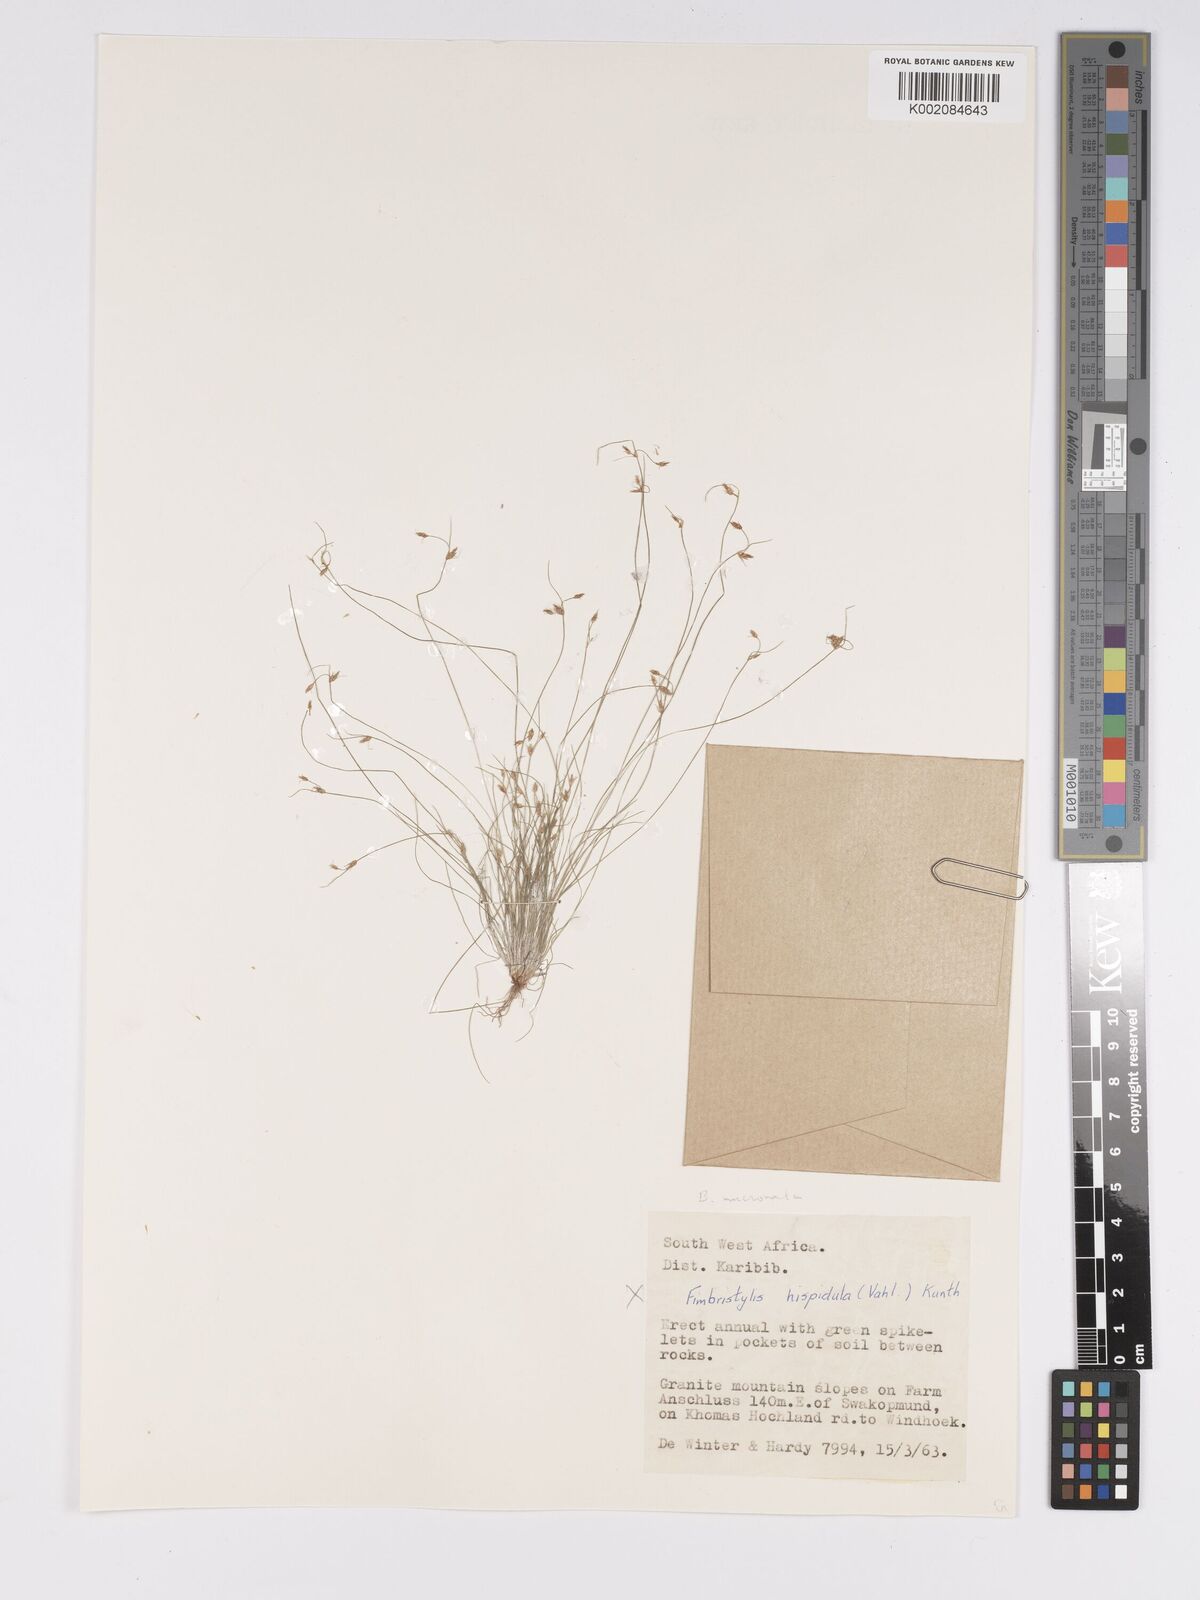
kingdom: Plantae
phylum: Tracheophyta
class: Liliopsida
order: Poales
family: Cyperaceae
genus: Bulbostylis
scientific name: Bulbostylis mucronata
